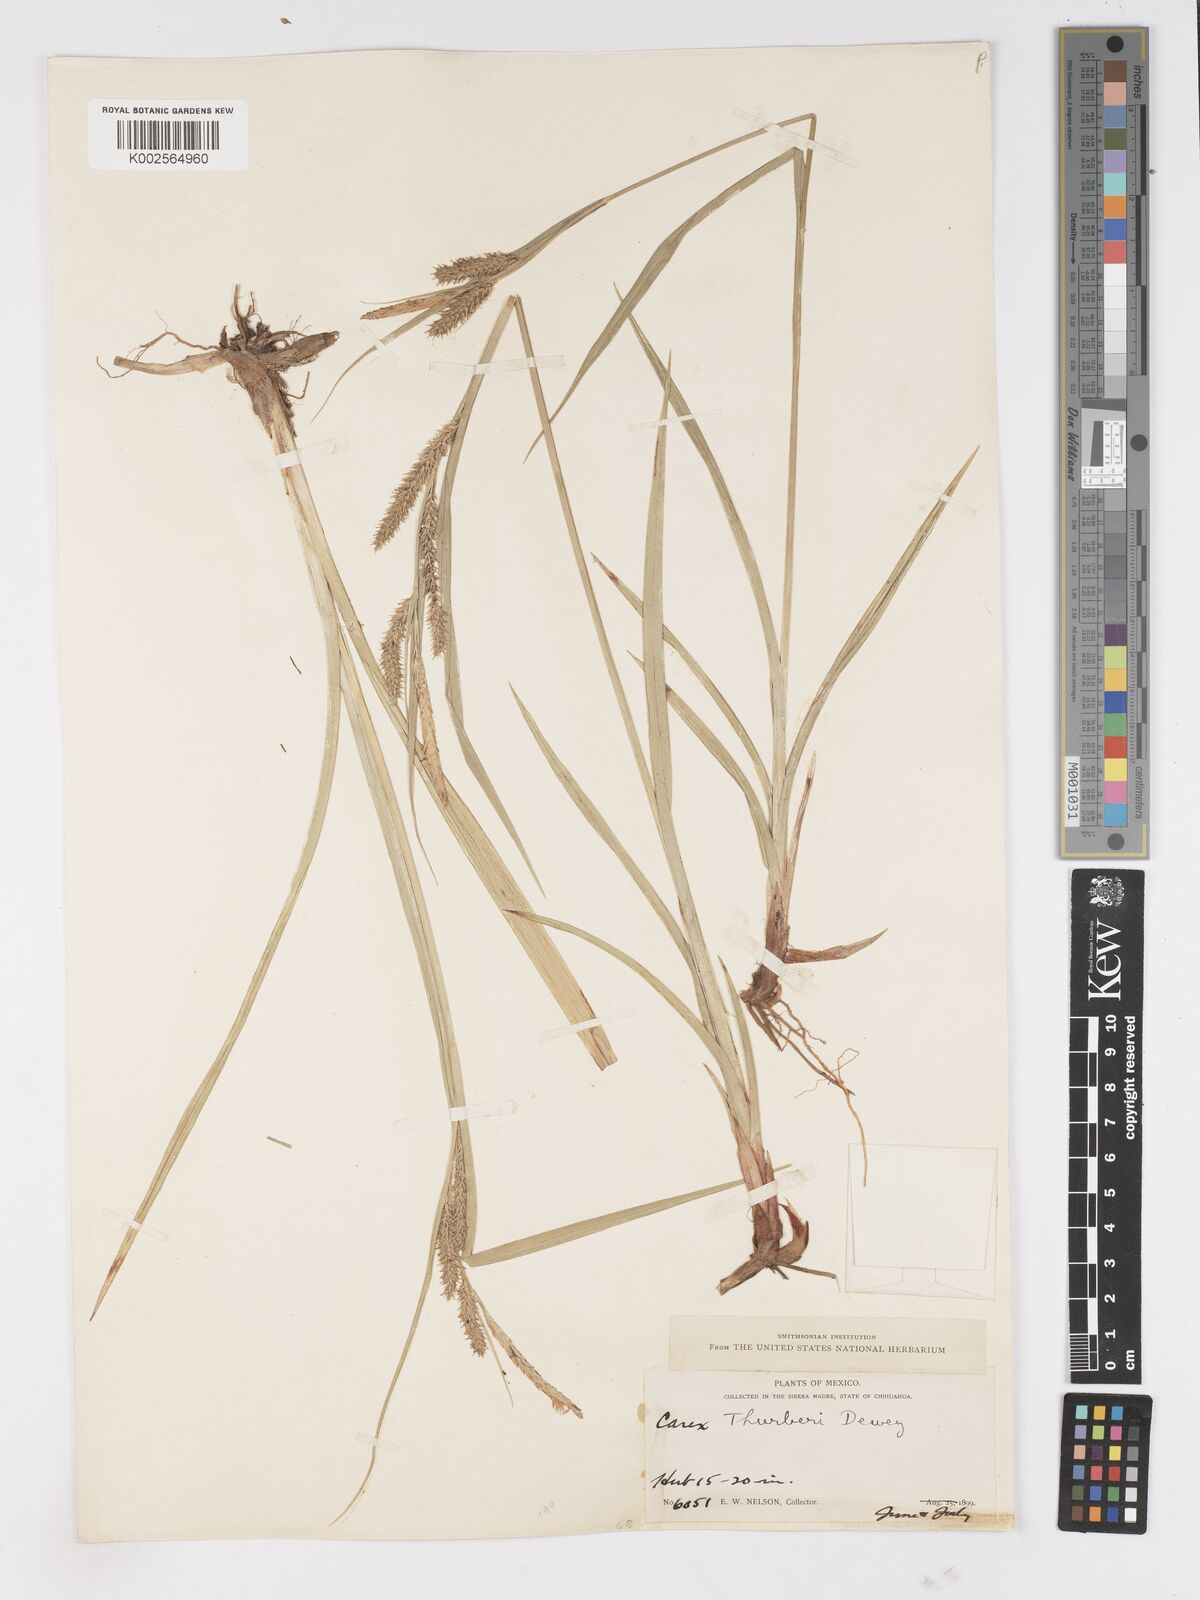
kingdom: Plantae
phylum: Tracheophyta
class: Liliopsida
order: Poales
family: Cyperaceae
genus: Carex
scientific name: Carex thurberi
